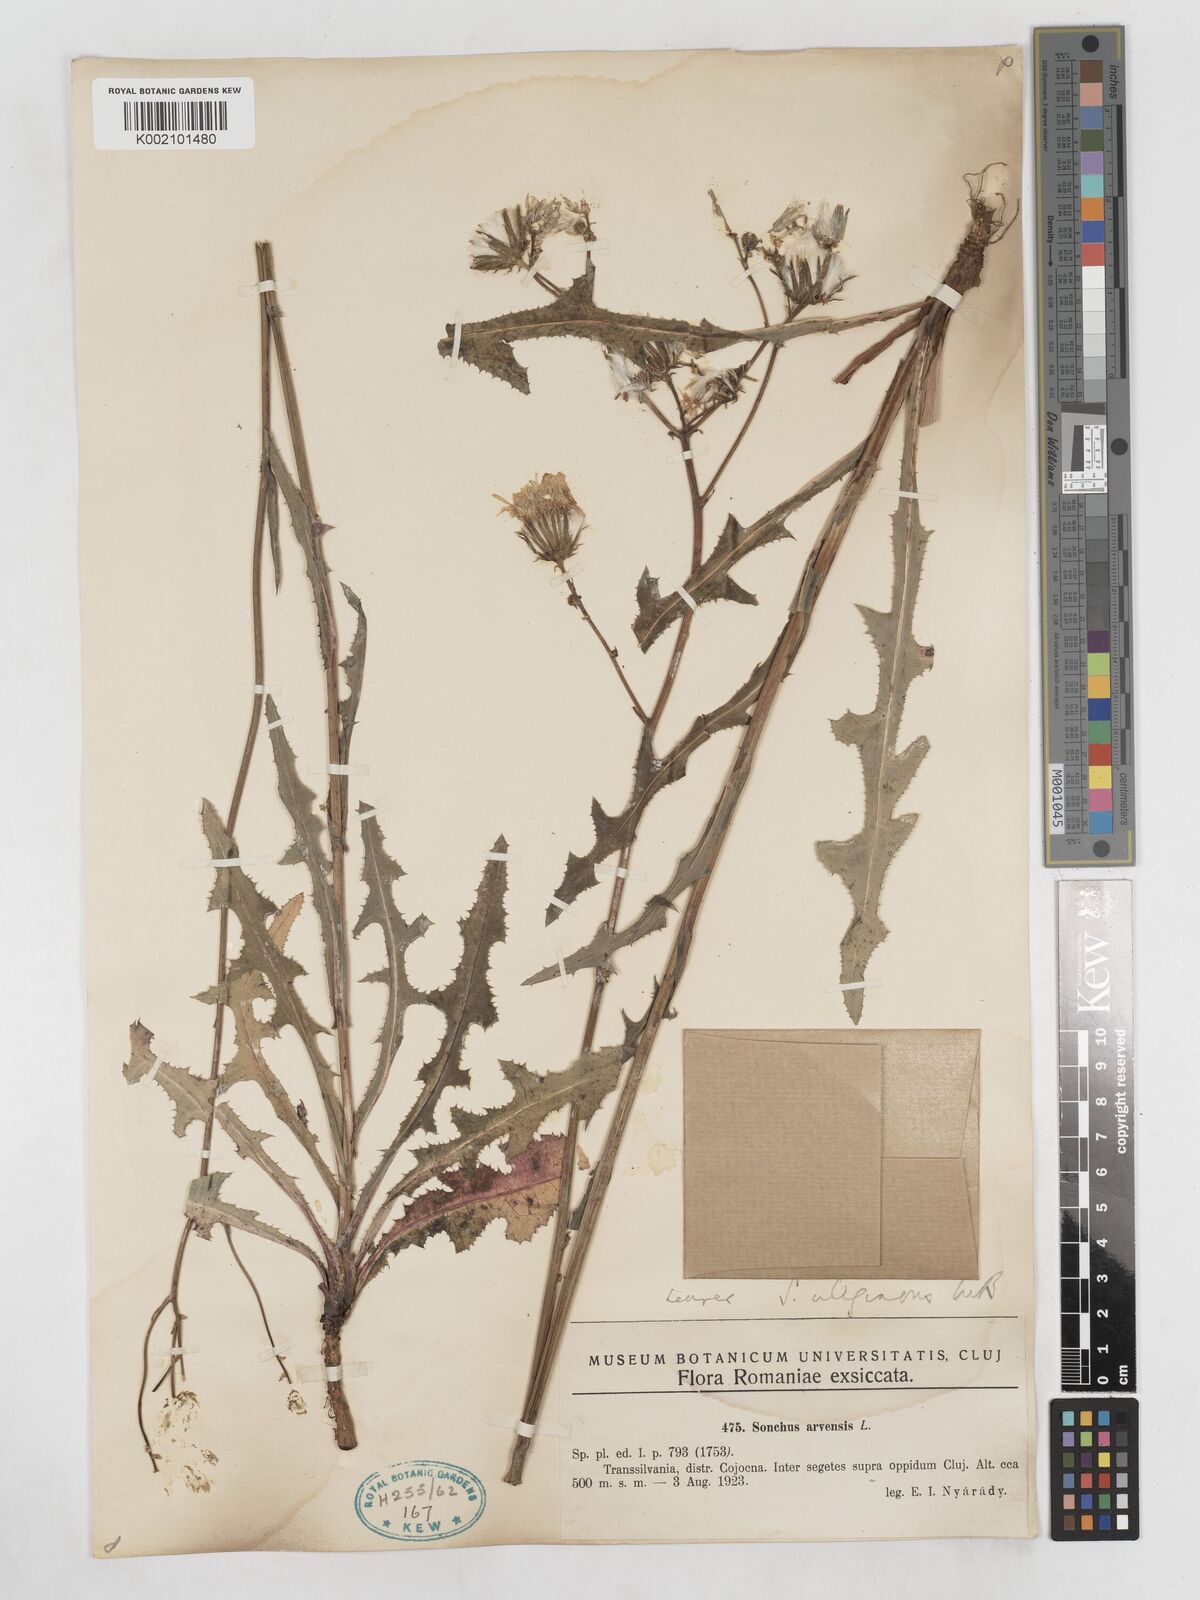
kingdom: Plantae
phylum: Tracheophyta
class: Magnoliopsida
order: Asterales
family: Asteraceae
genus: Sonchus
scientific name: Sonchus arvensis
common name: Perennial sow-thistle
